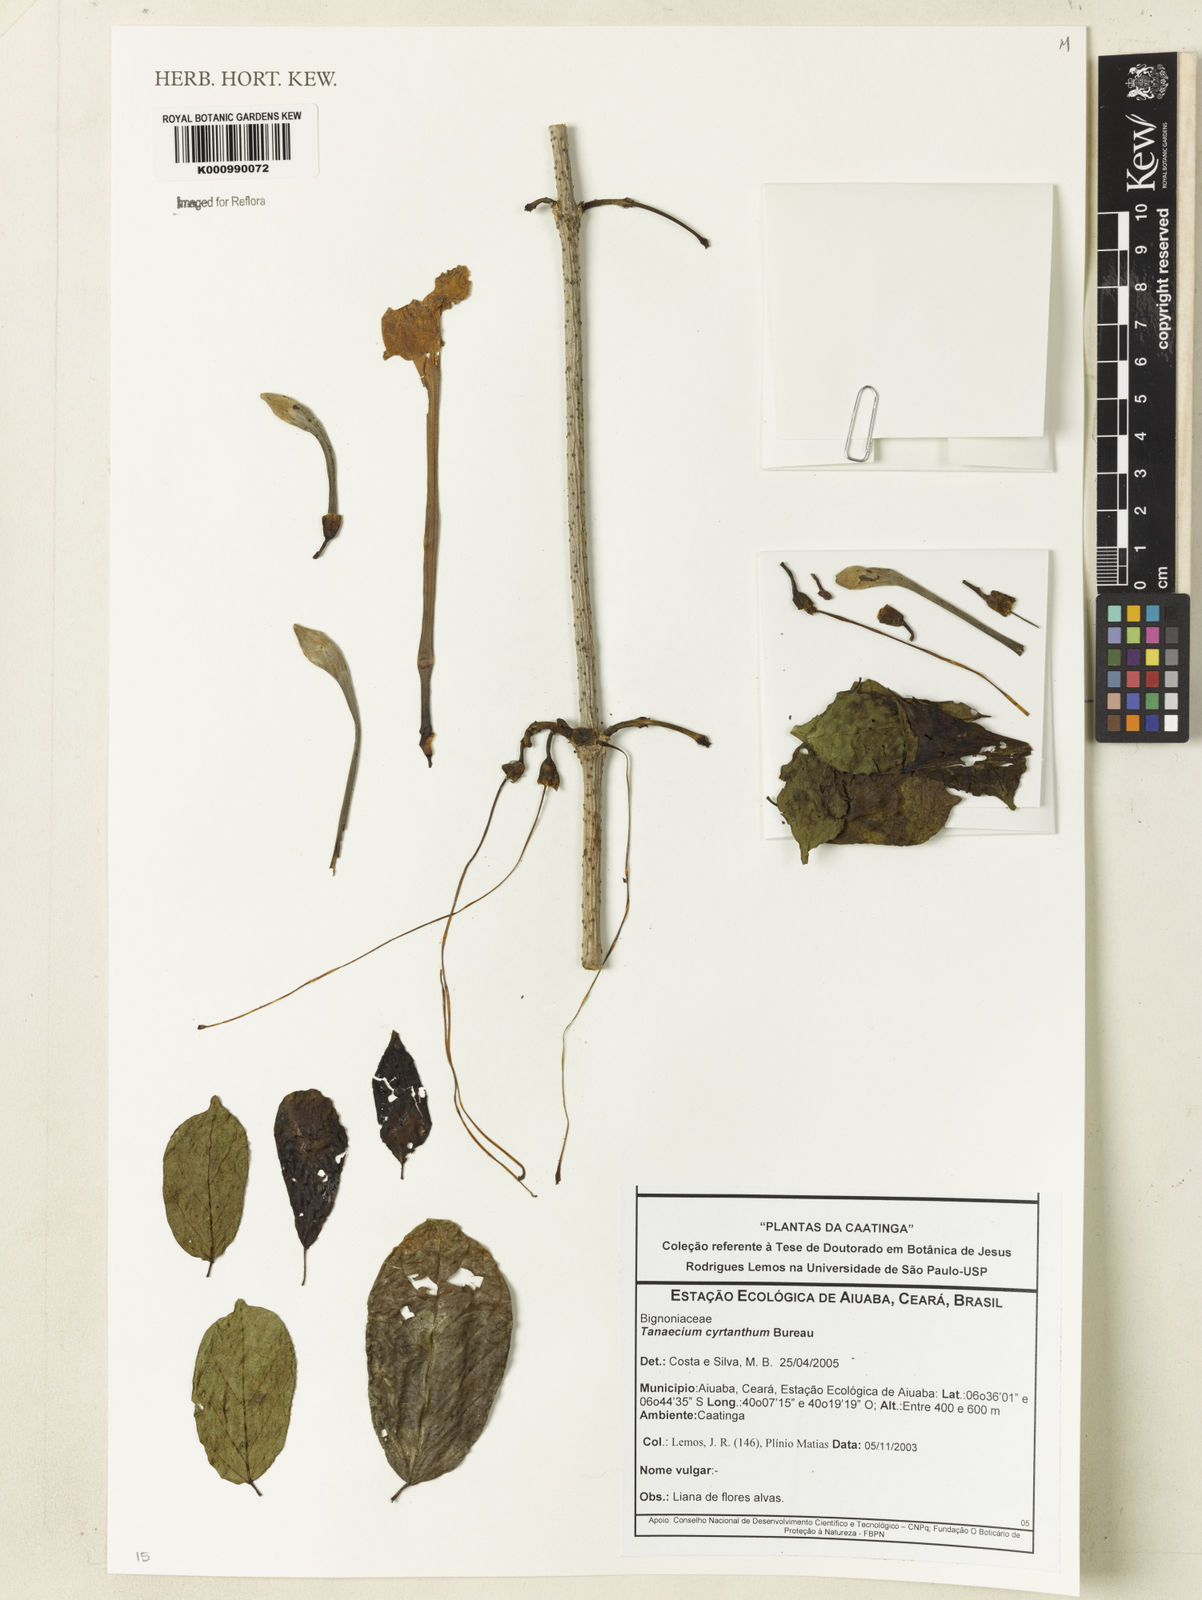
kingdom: Plantae
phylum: Tracheophyta
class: Magnoliopsida
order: Lamiales
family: Bignoniaceae
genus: Tanaecium
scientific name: Tanaecium cyrtanthum
